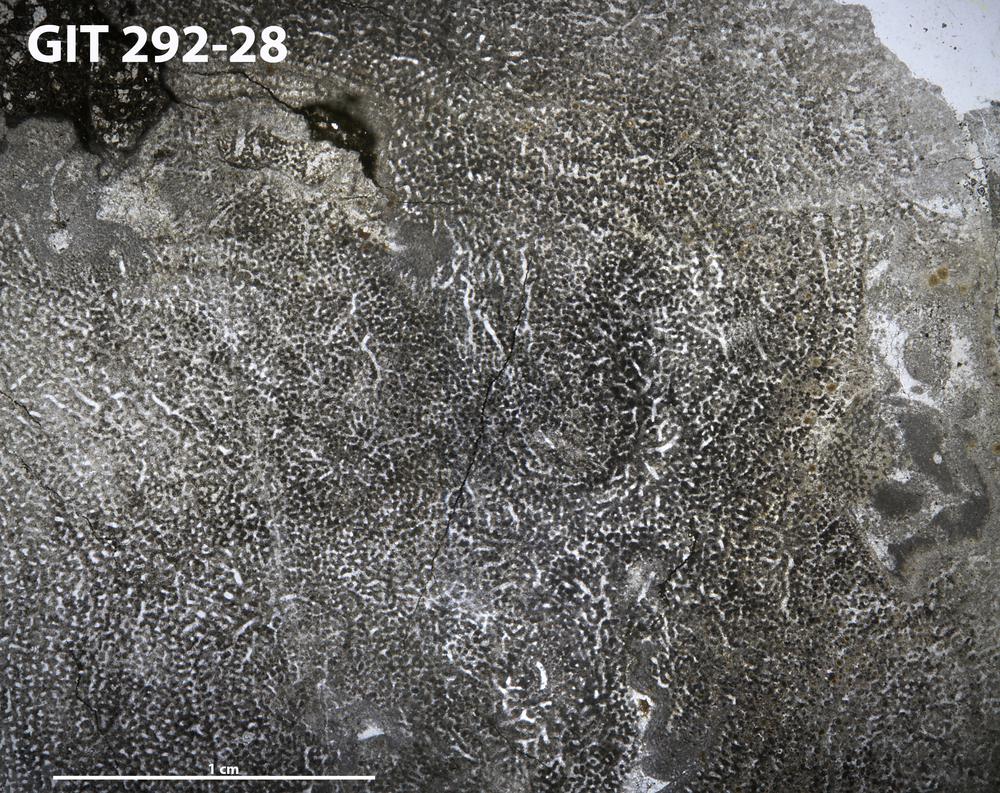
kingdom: Animalia
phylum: Porifera
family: Stromatoporidae
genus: Stromatopora
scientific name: Stromatopora
